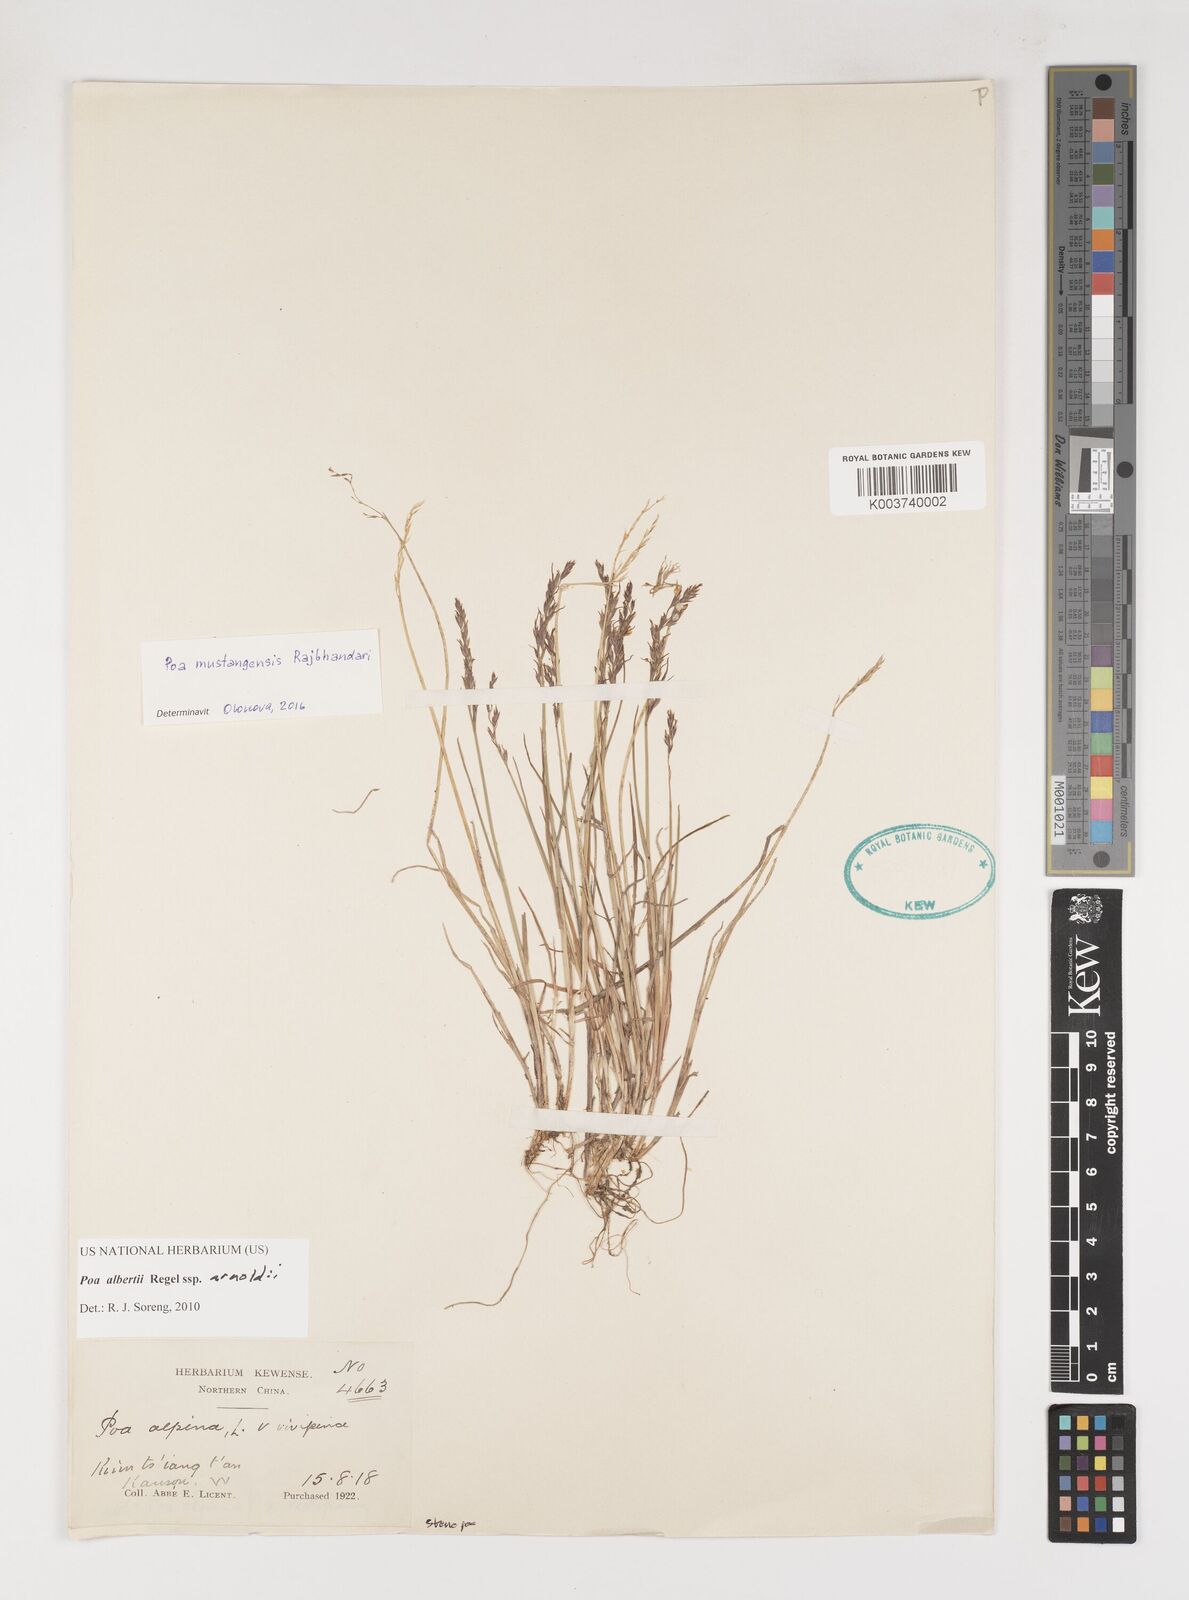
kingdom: Plantae
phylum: Tracheophyta
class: Liliopsida
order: Poales
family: Poaceae
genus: Poa
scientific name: Poa alberti
